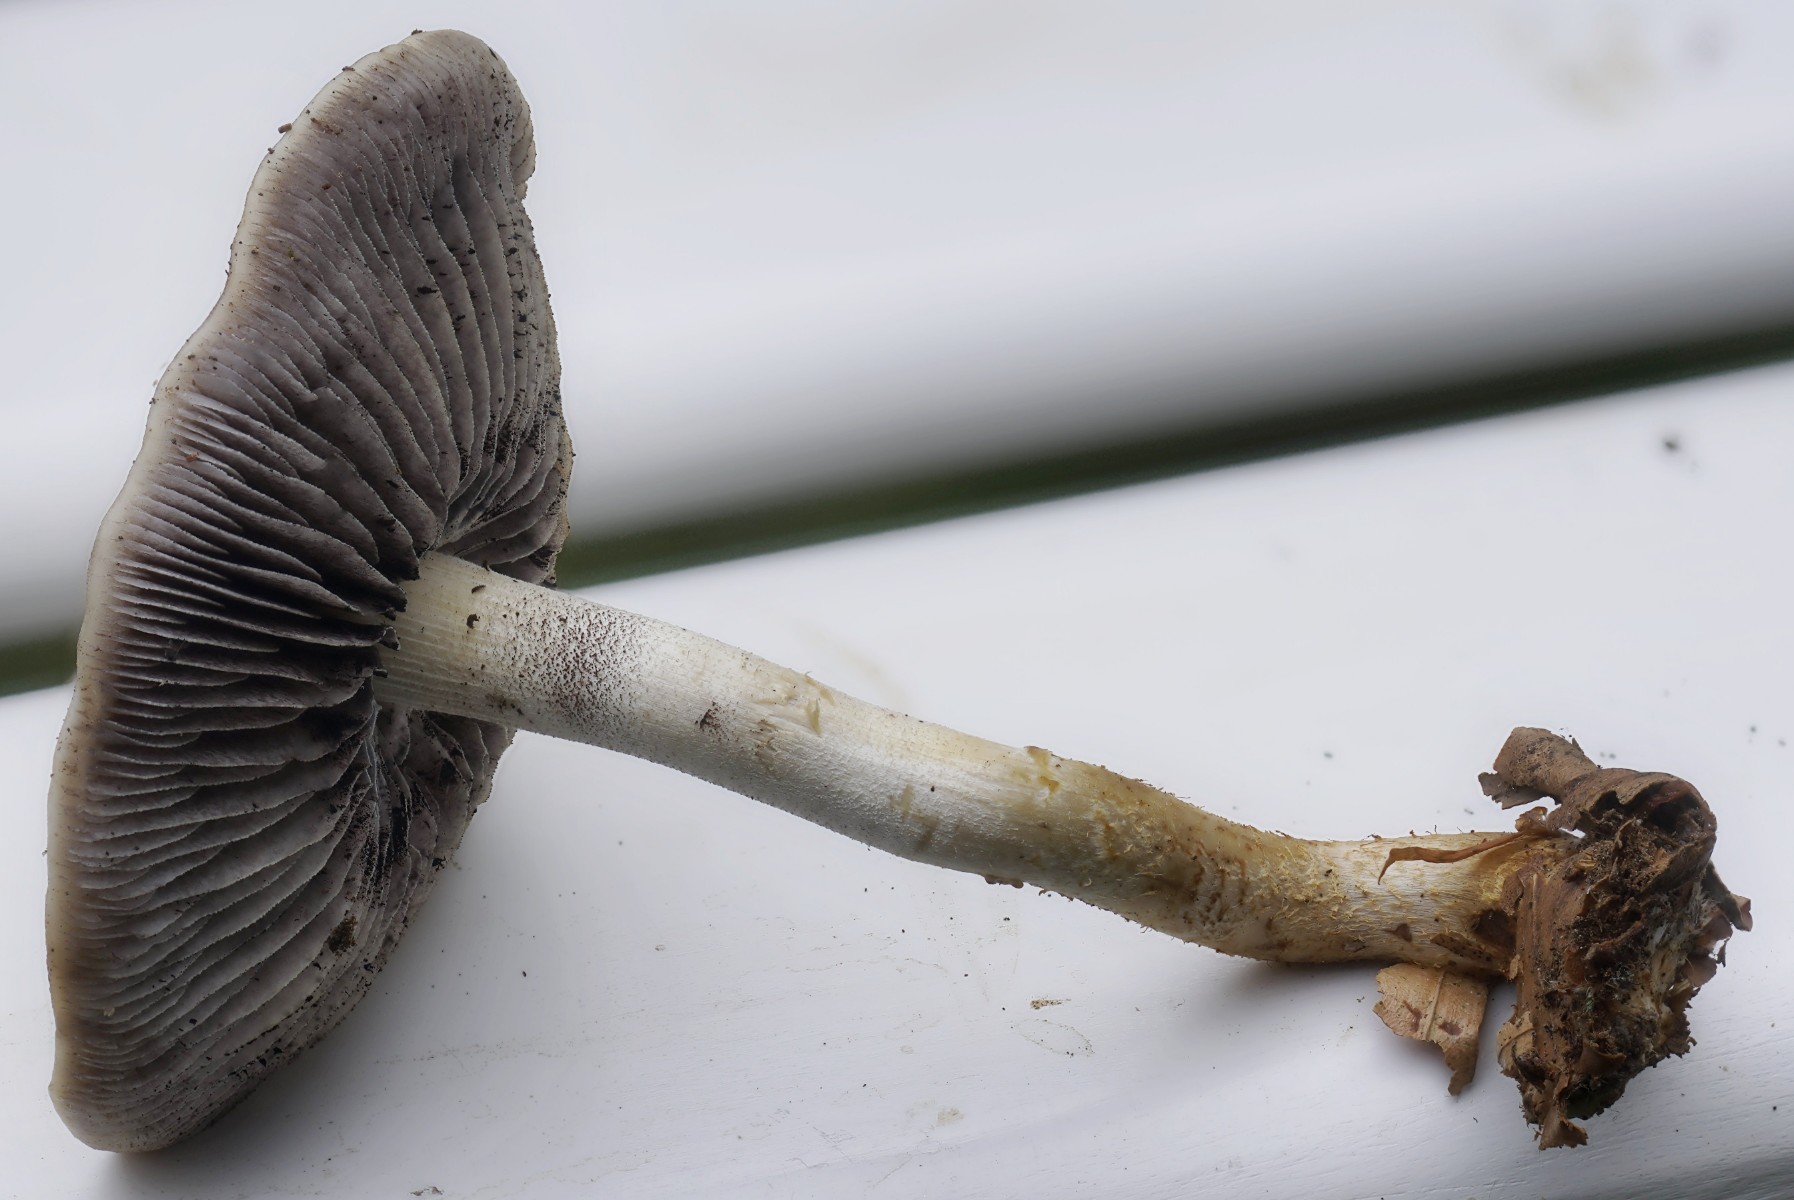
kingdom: Fungi
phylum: Basidiomycota
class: Agaricomycetes
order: Agaricales
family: Strophariaceae
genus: Leratiomyces
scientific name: Leratiomyces squamosus
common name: skællet bredblad
